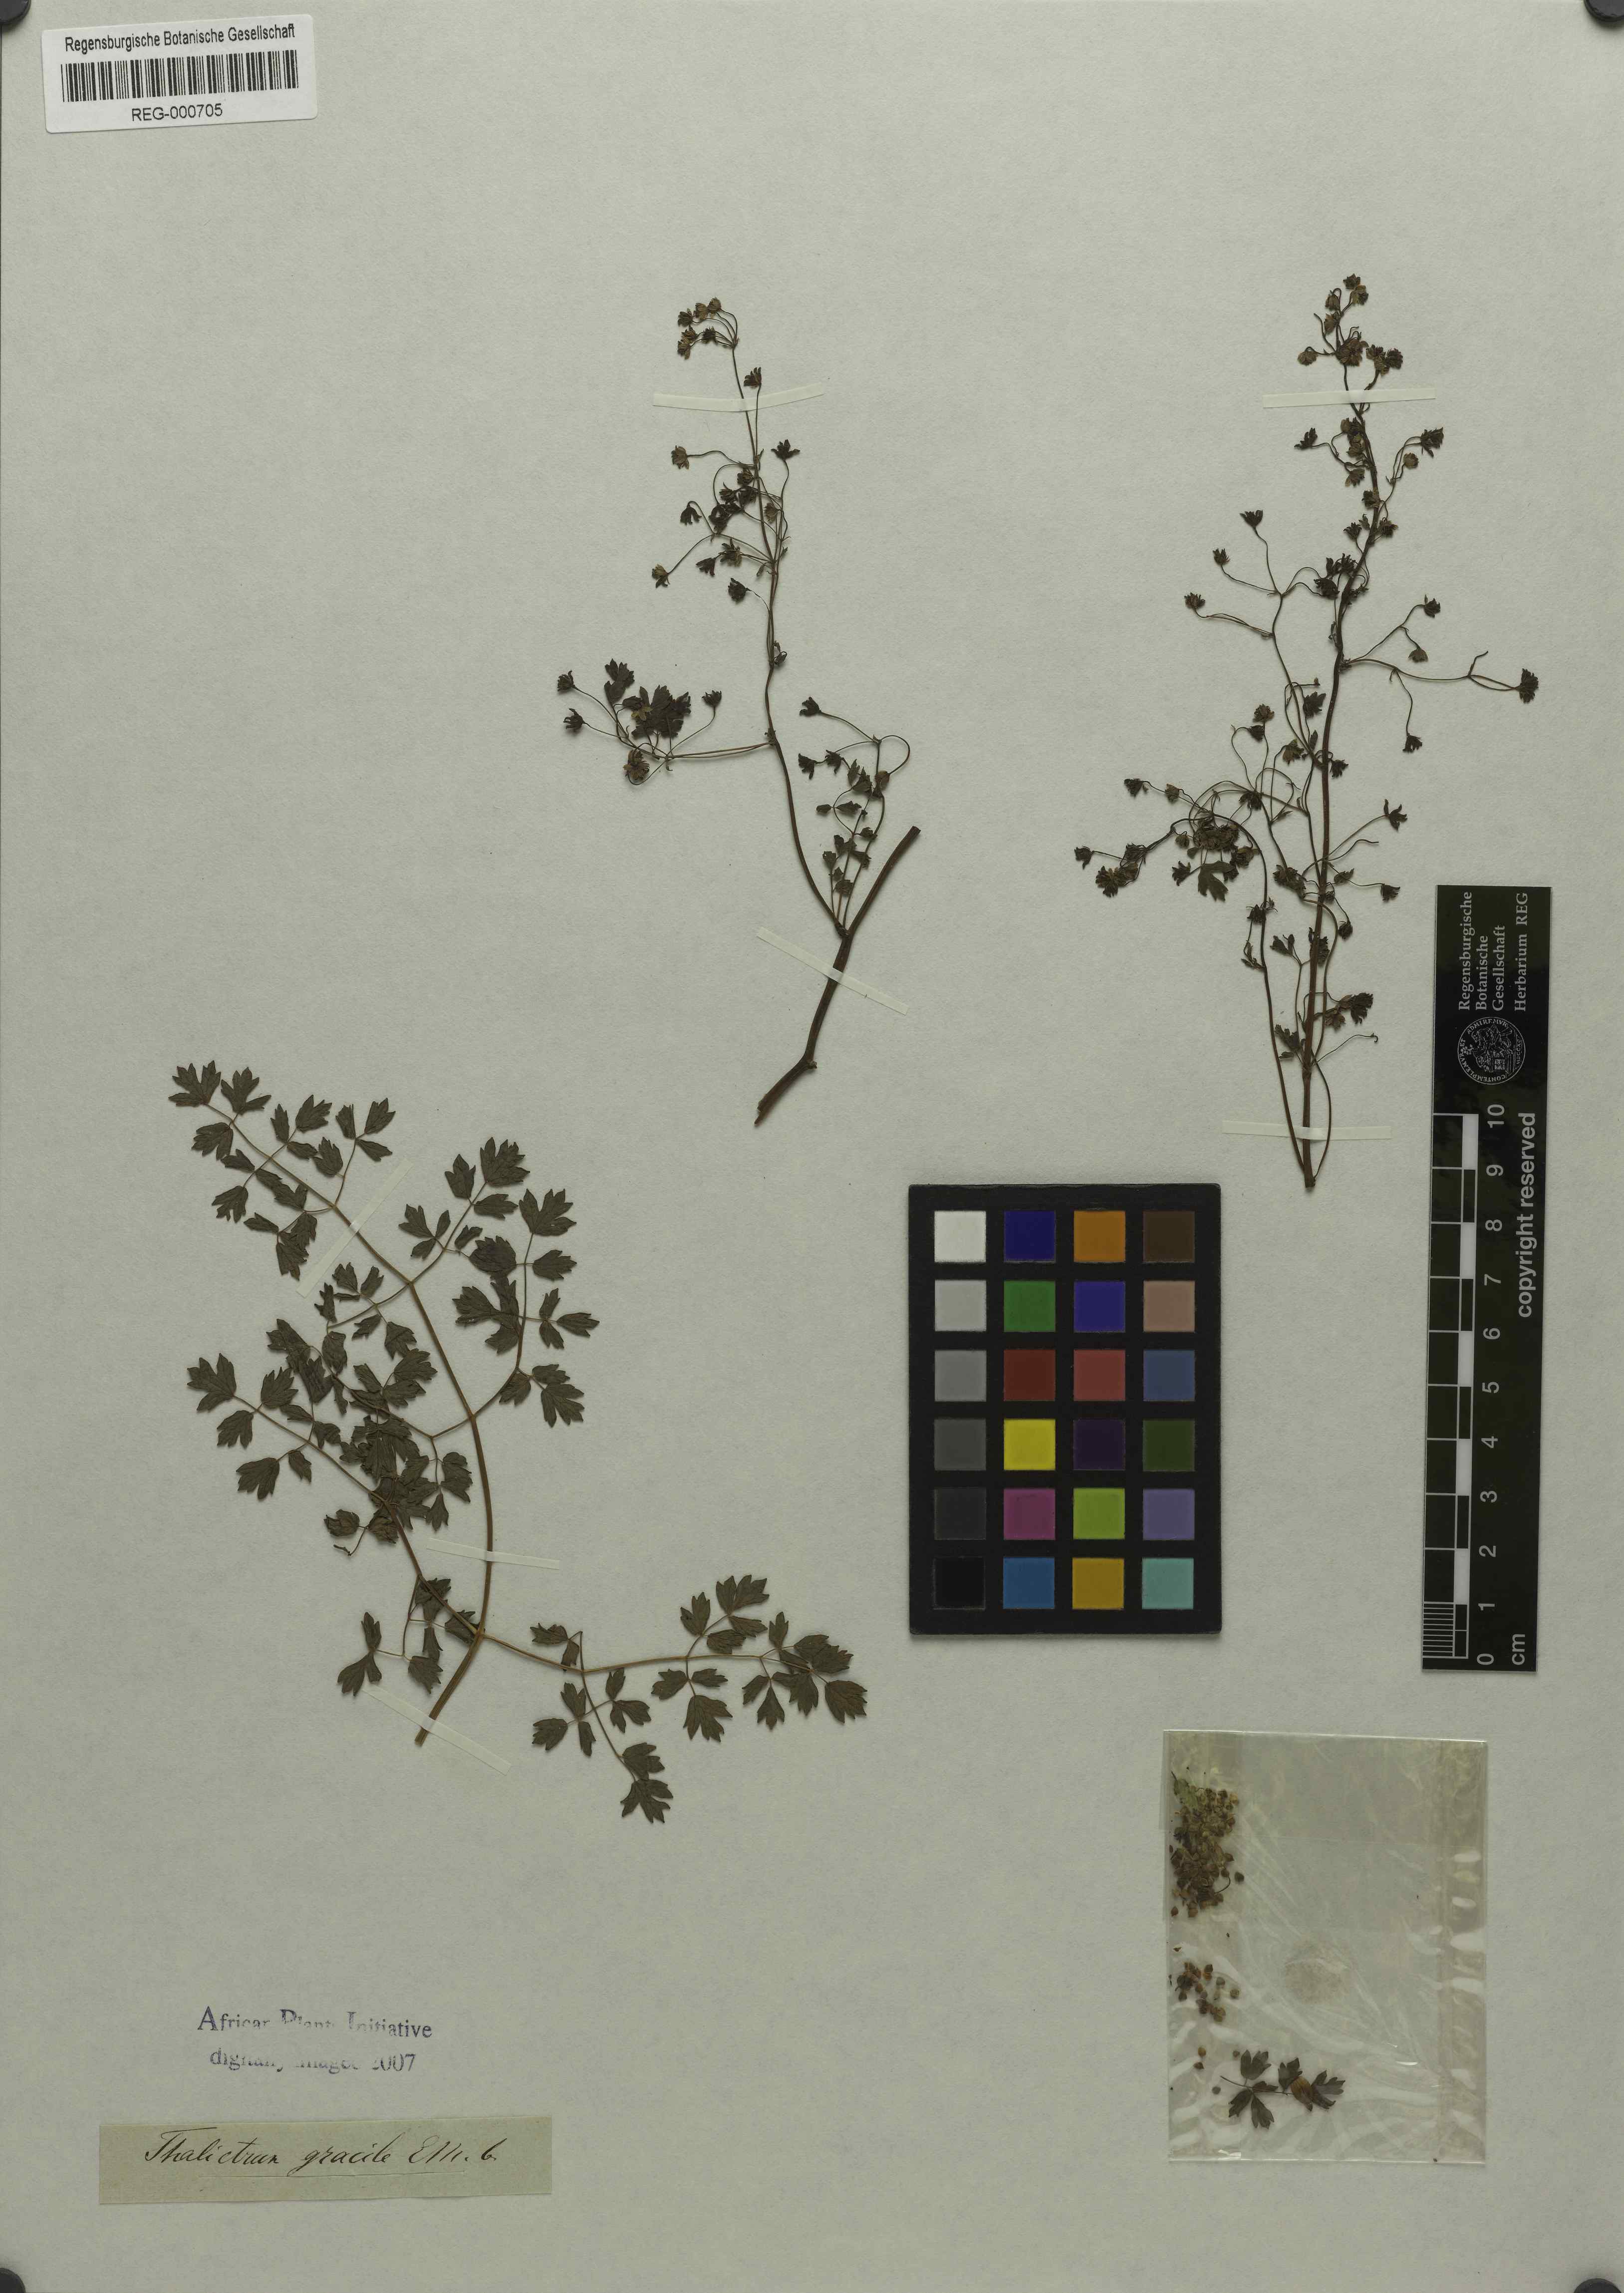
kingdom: Plantae
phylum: Tracheophyta
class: Magnoliopsida
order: Ranunculales
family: Ranunculaceae
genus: Thalictrum
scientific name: Thalictrum
